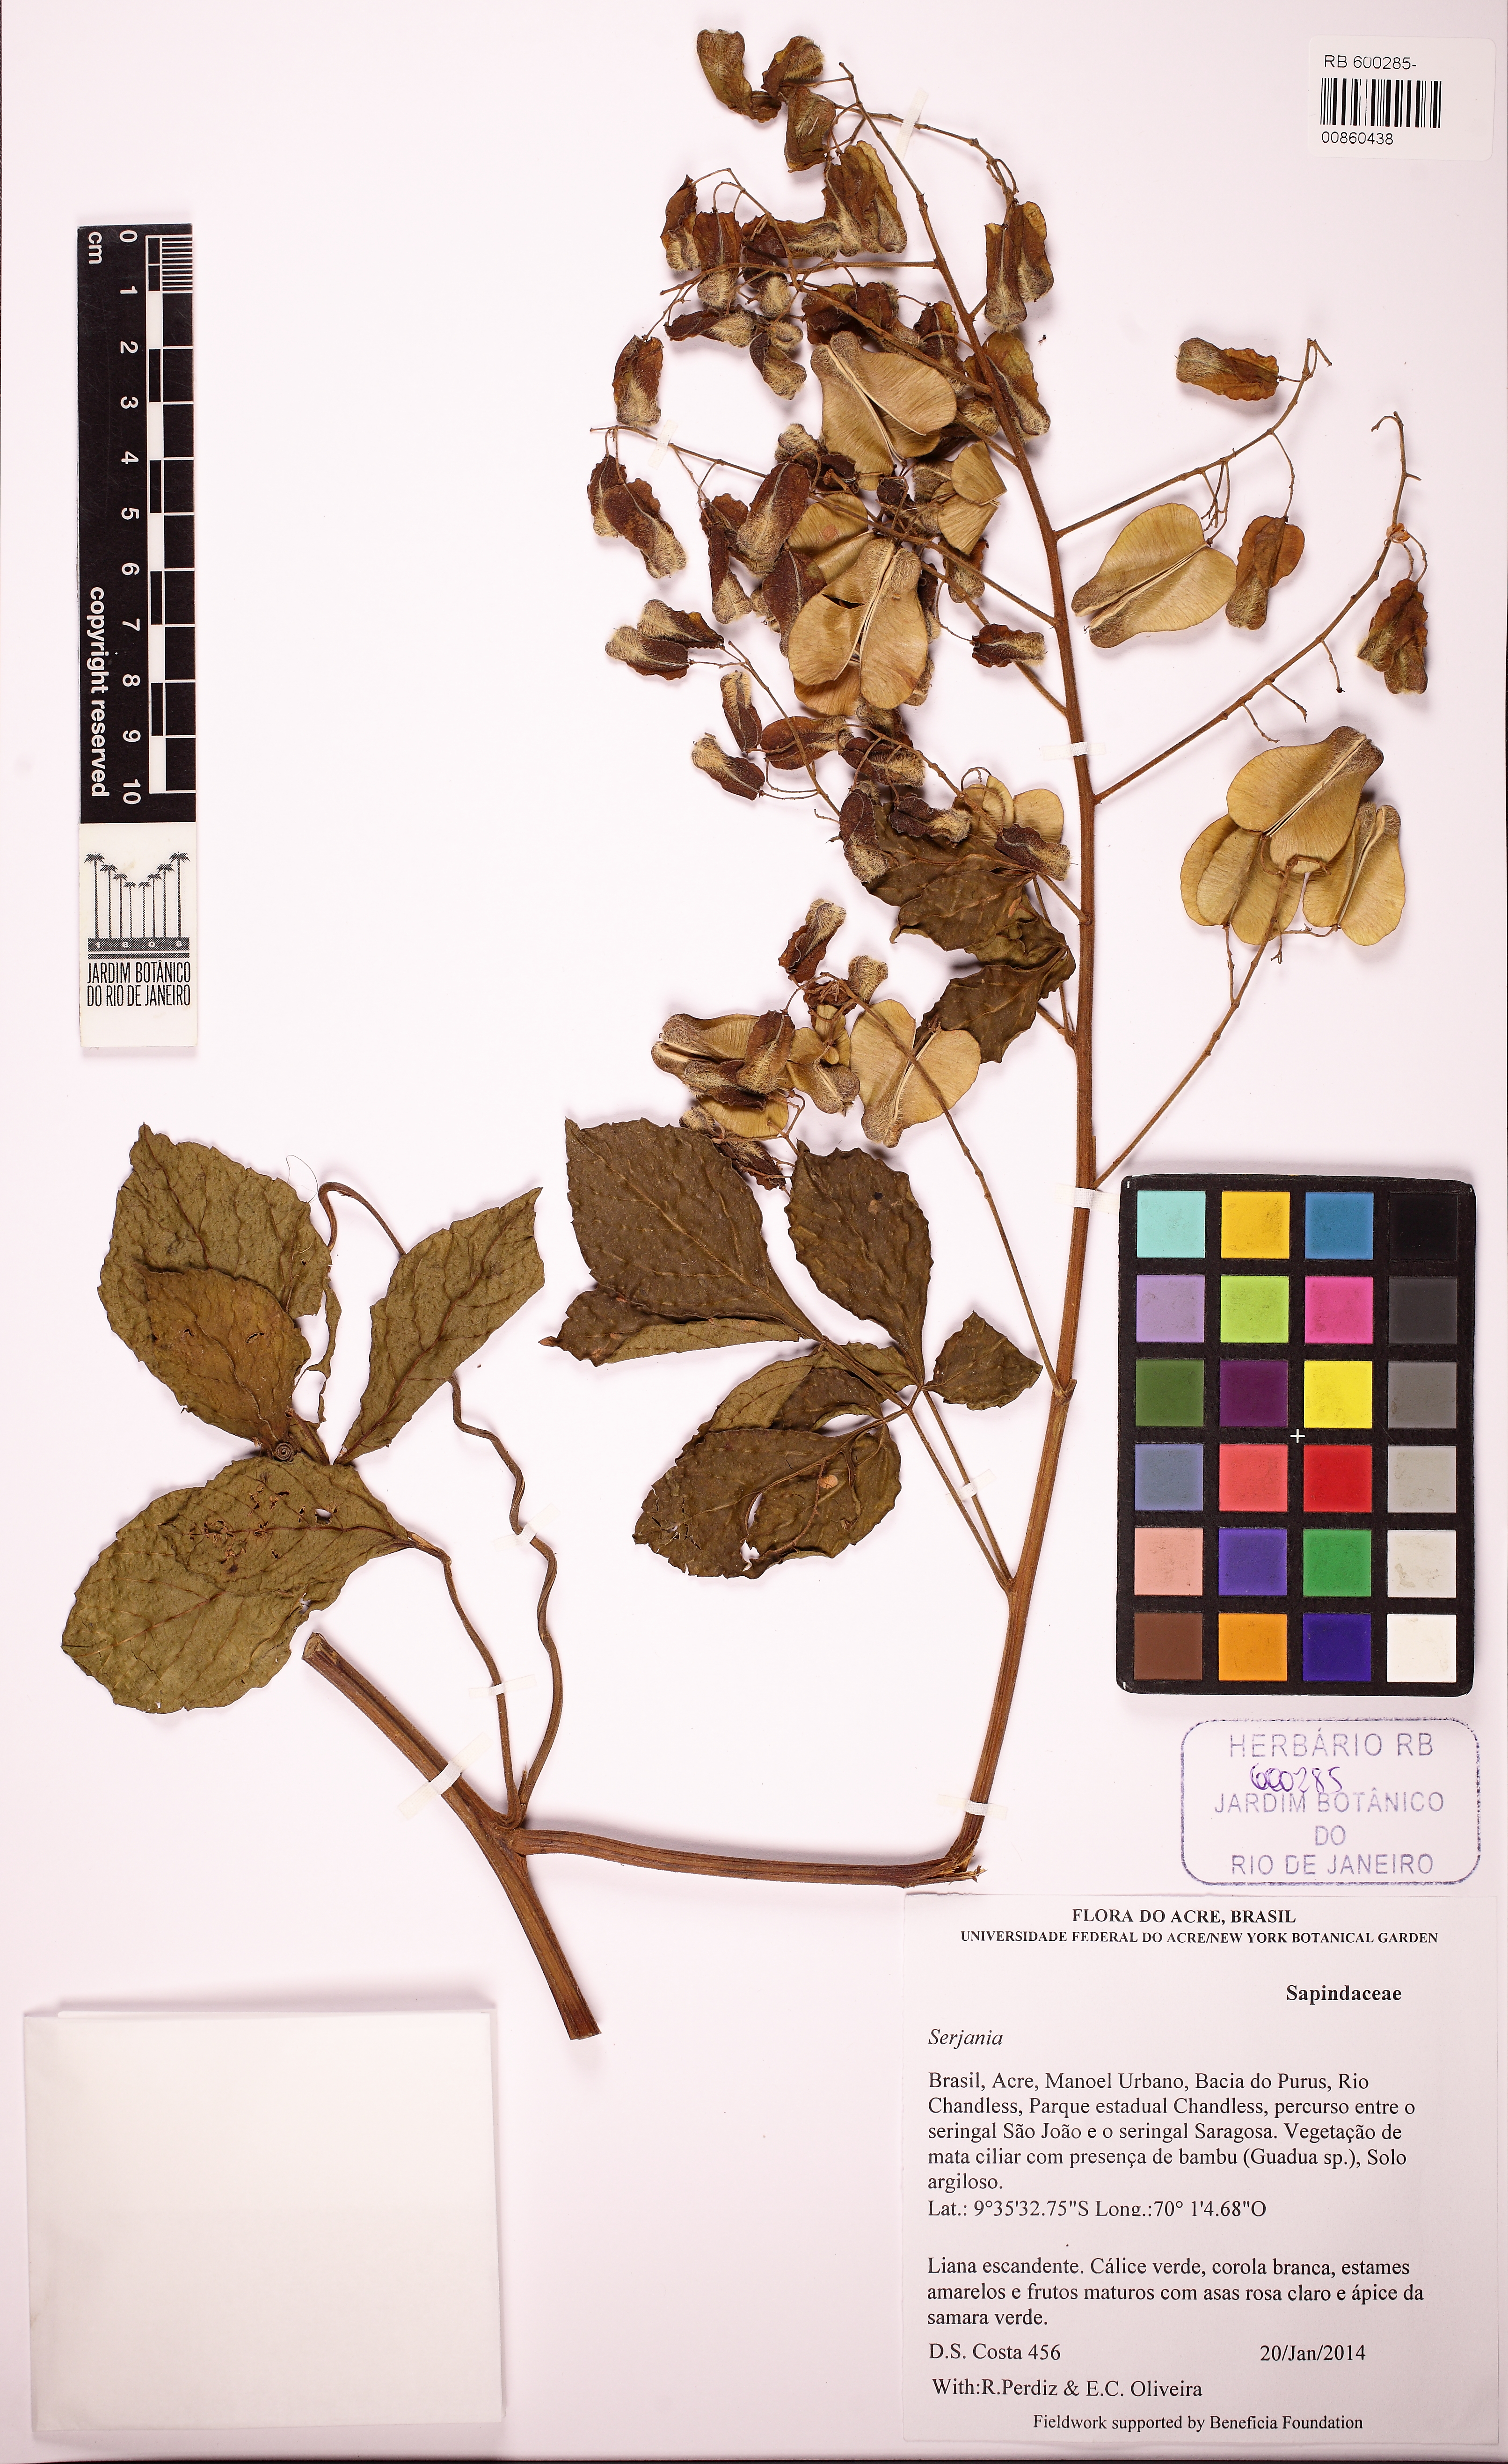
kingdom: Plantae
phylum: Tracheophyta
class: Magnoliopsida
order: Sapindales
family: Sapindaceae
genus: Serjania
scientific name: Serjania inscripta
